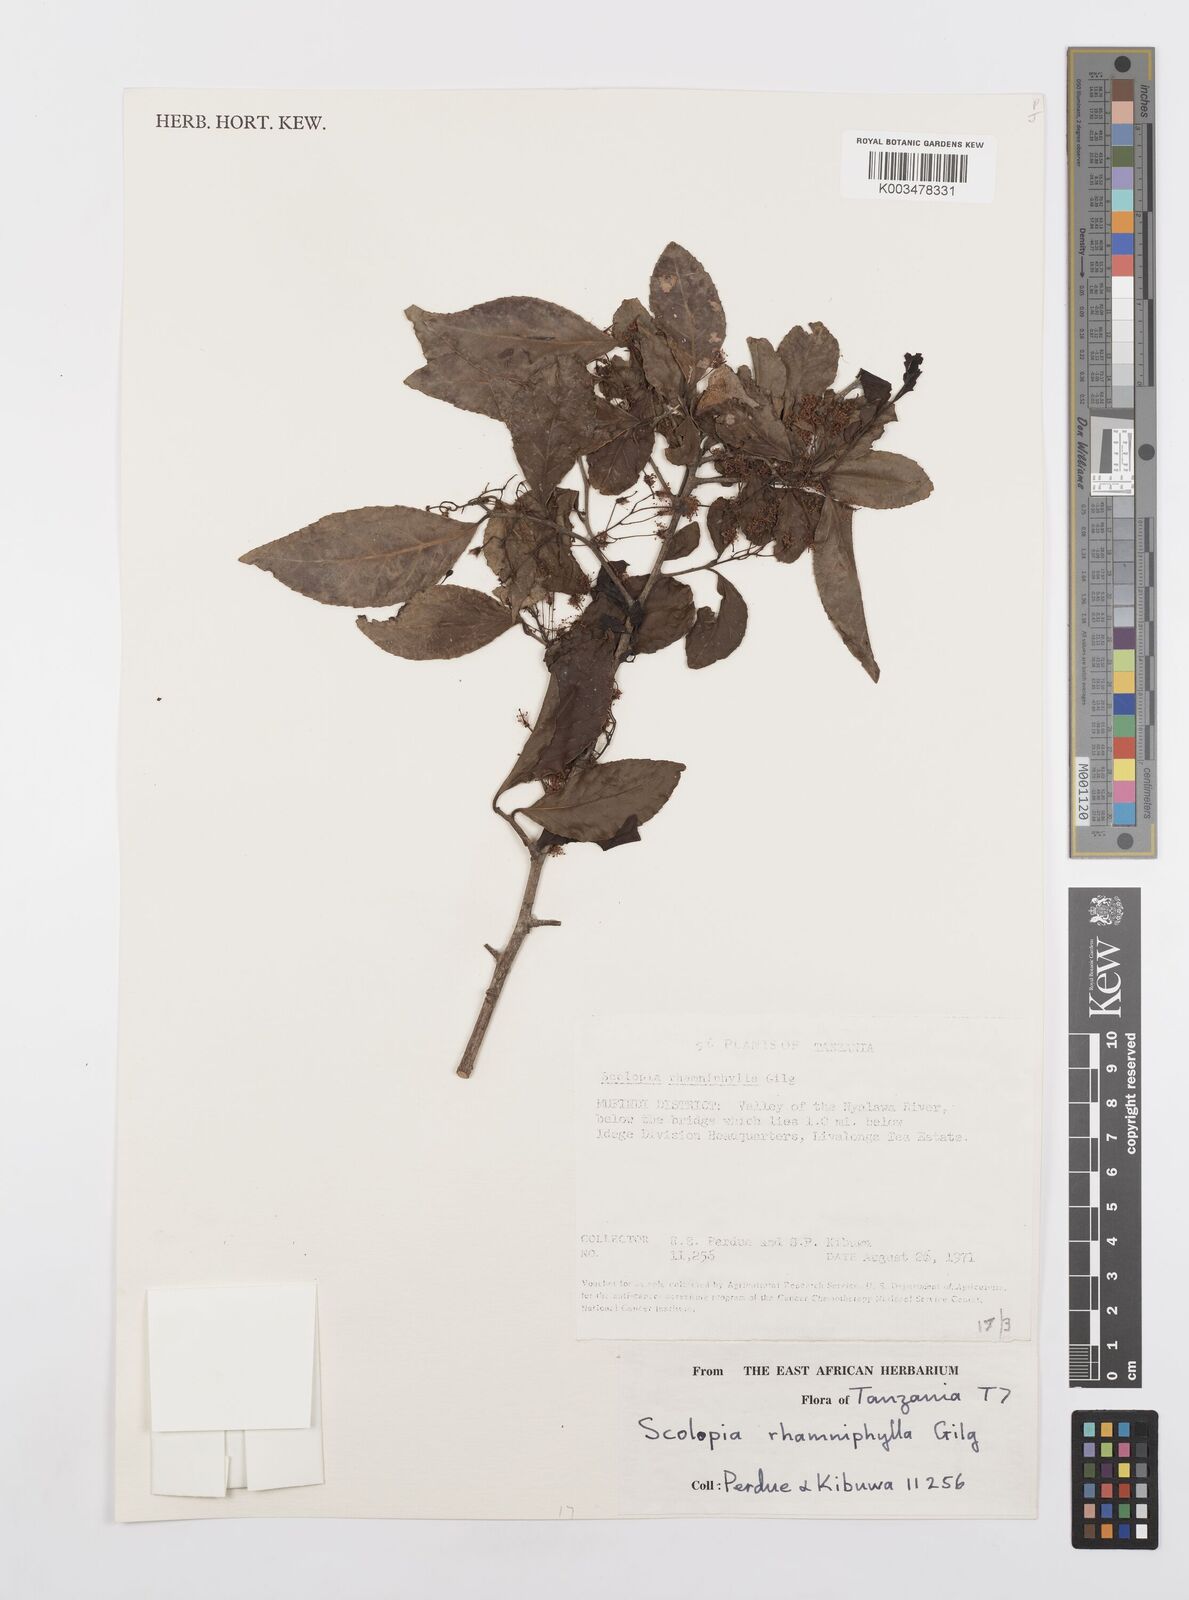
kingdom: Plantae
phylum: Tracheophyta
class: Magnoliopsida
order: Malpighiales
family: Salicaceae
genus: Scolopia
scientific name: Scolopia rhamniphylla
